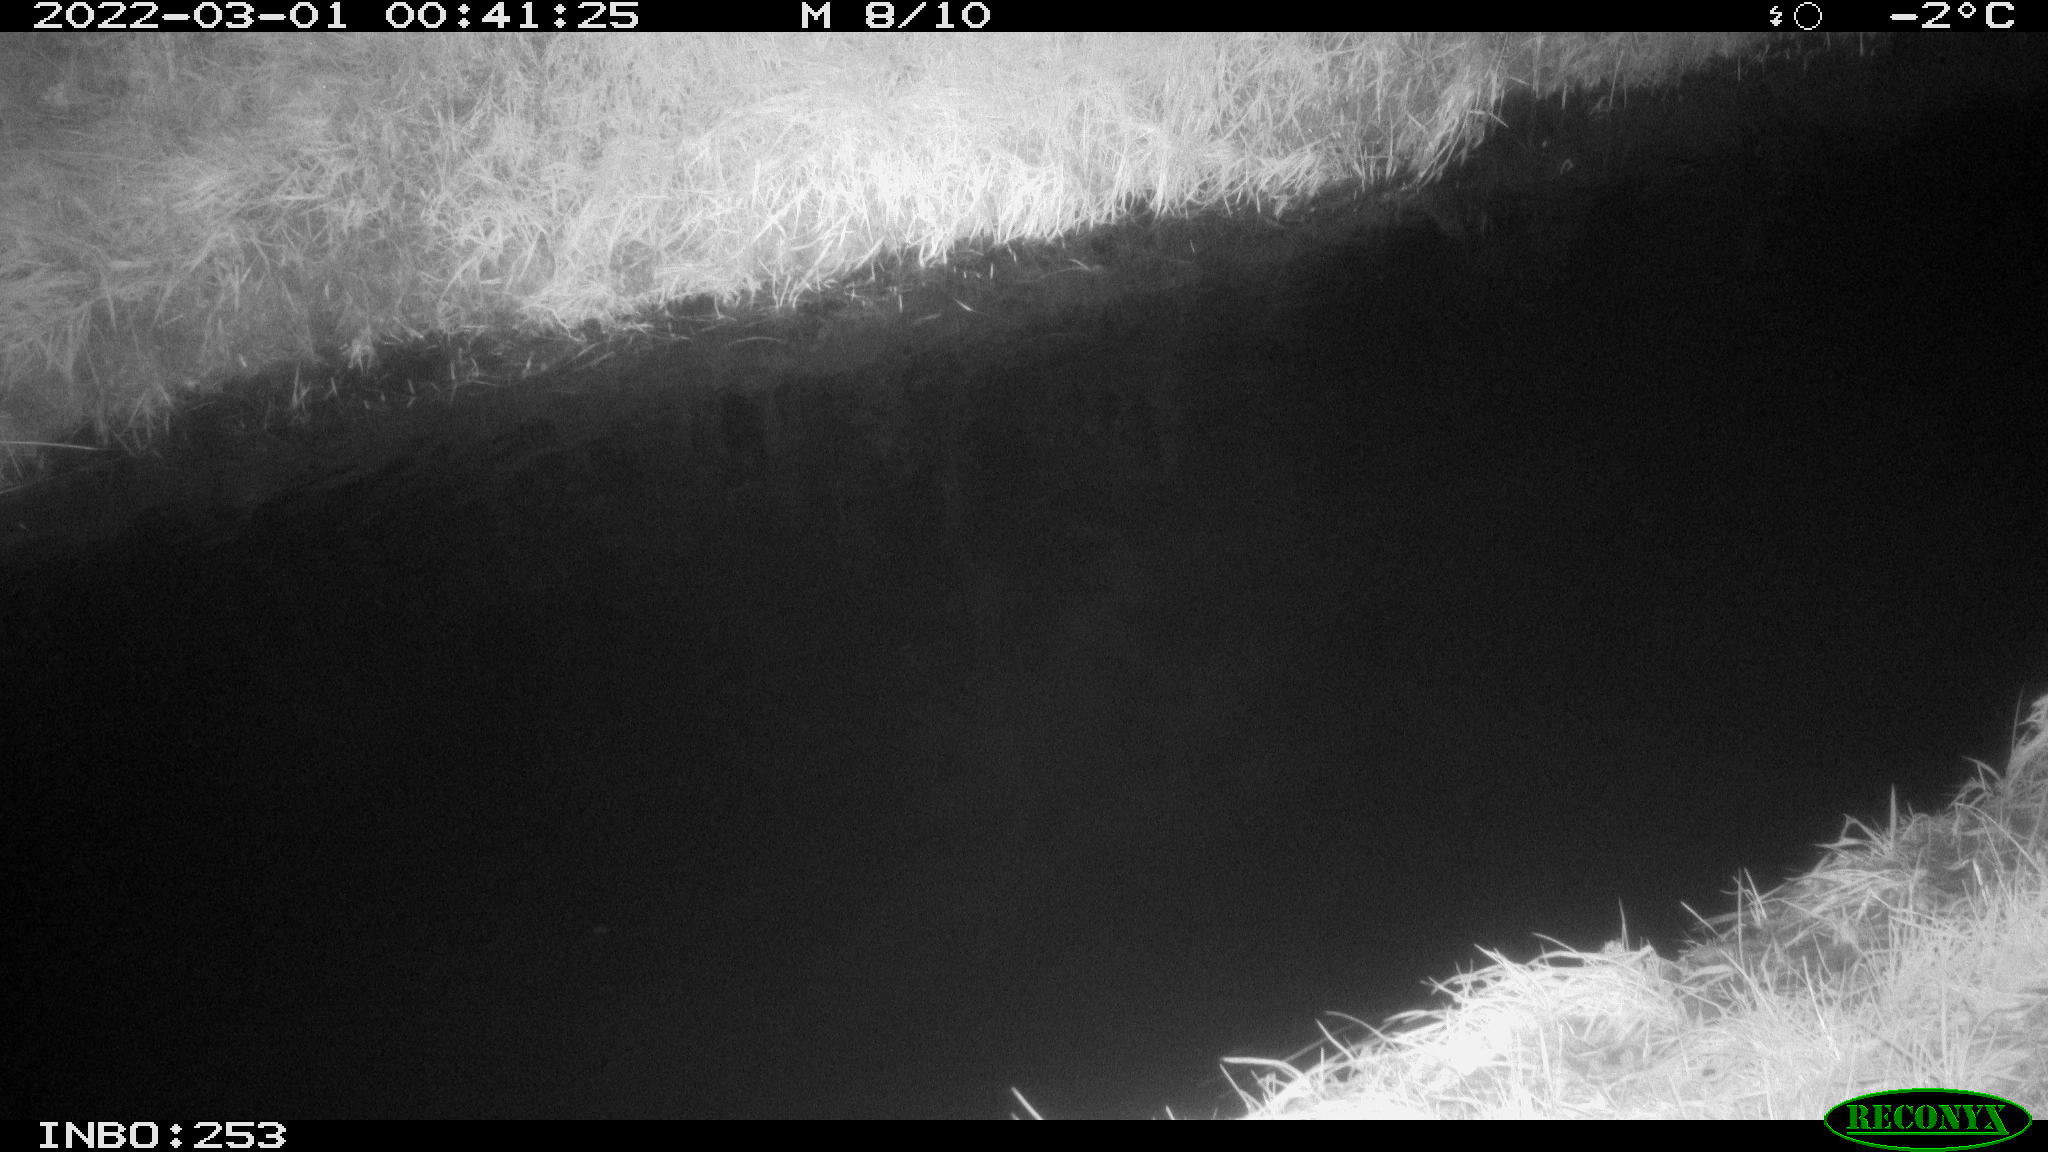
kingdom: Animalia
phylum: Chordata
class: Aves
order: Anseriformes
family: Anatidae
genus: Anas
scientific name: Anas platyrhynchos
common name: Mallard
